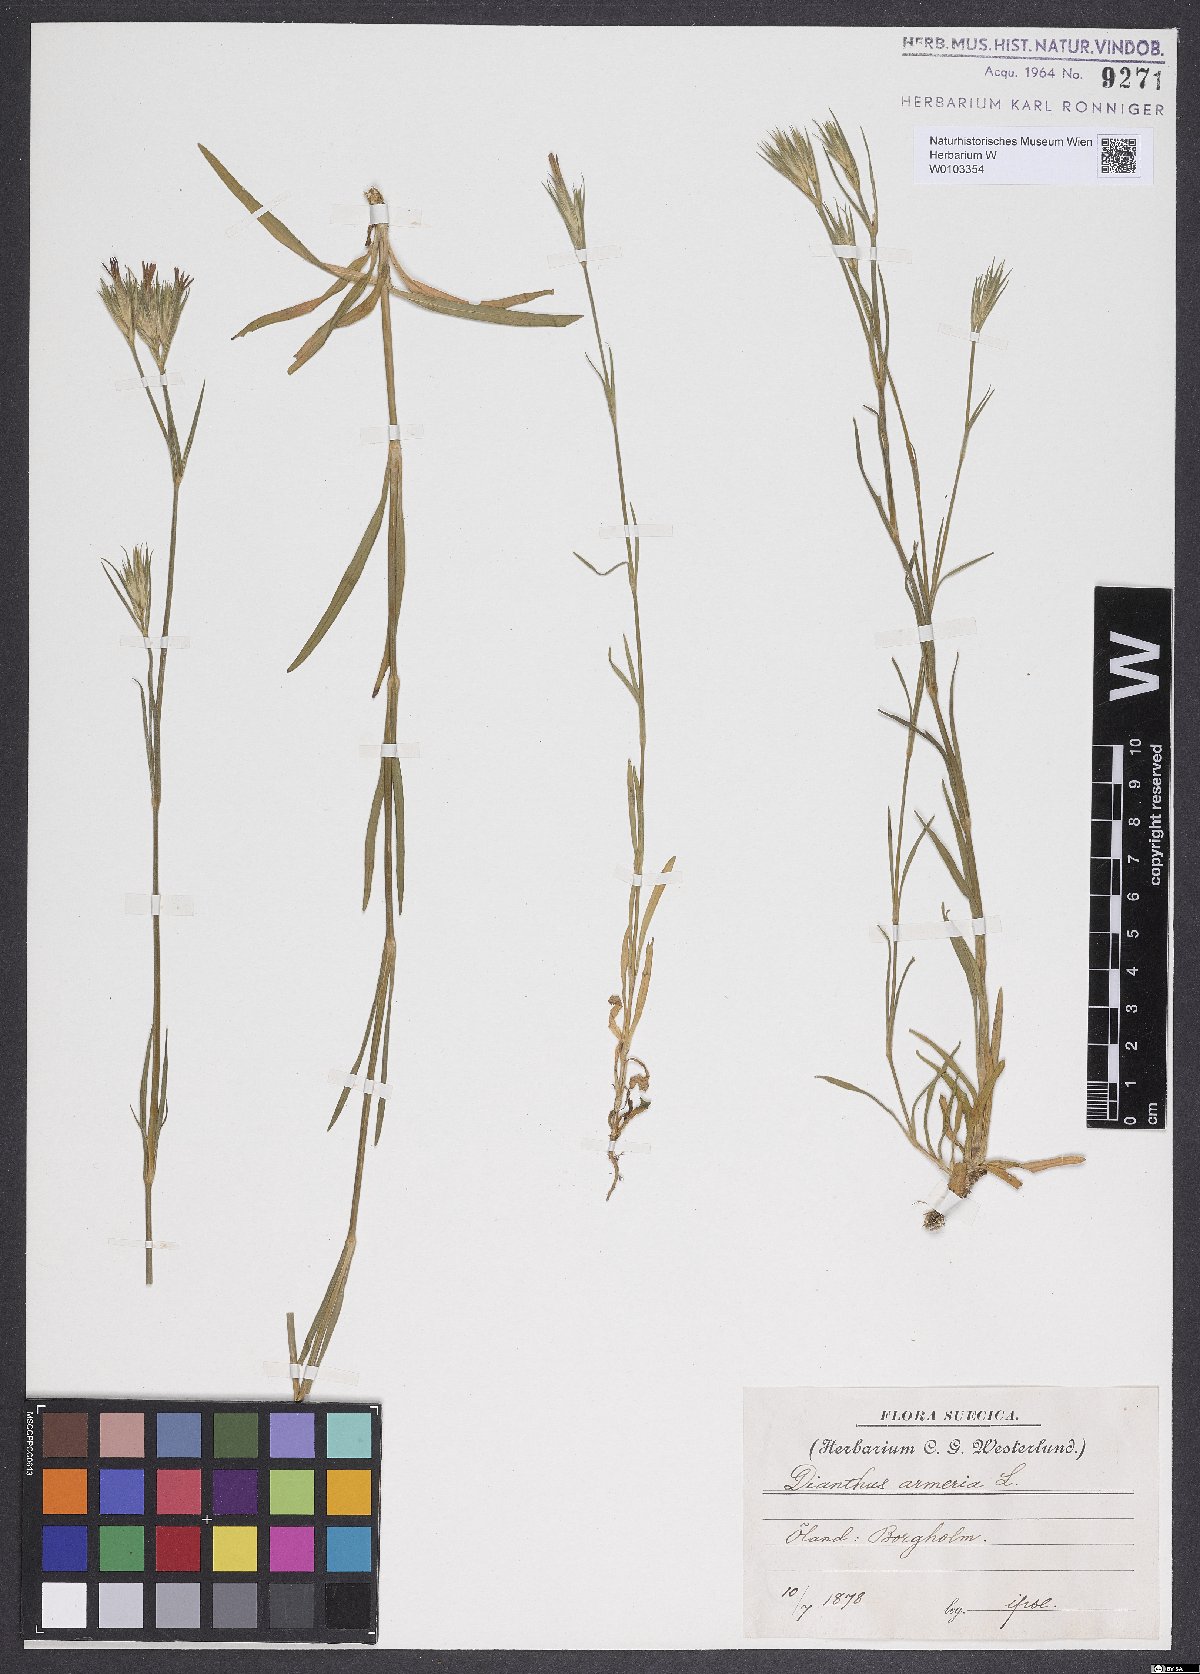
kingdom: Plantae
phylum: Tracheophyta
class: Magnoliopsida
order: Caryophyllales
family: Caryophyllaceae
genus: Dianthus
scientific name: Dianthus armeria
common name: Deptford pink
